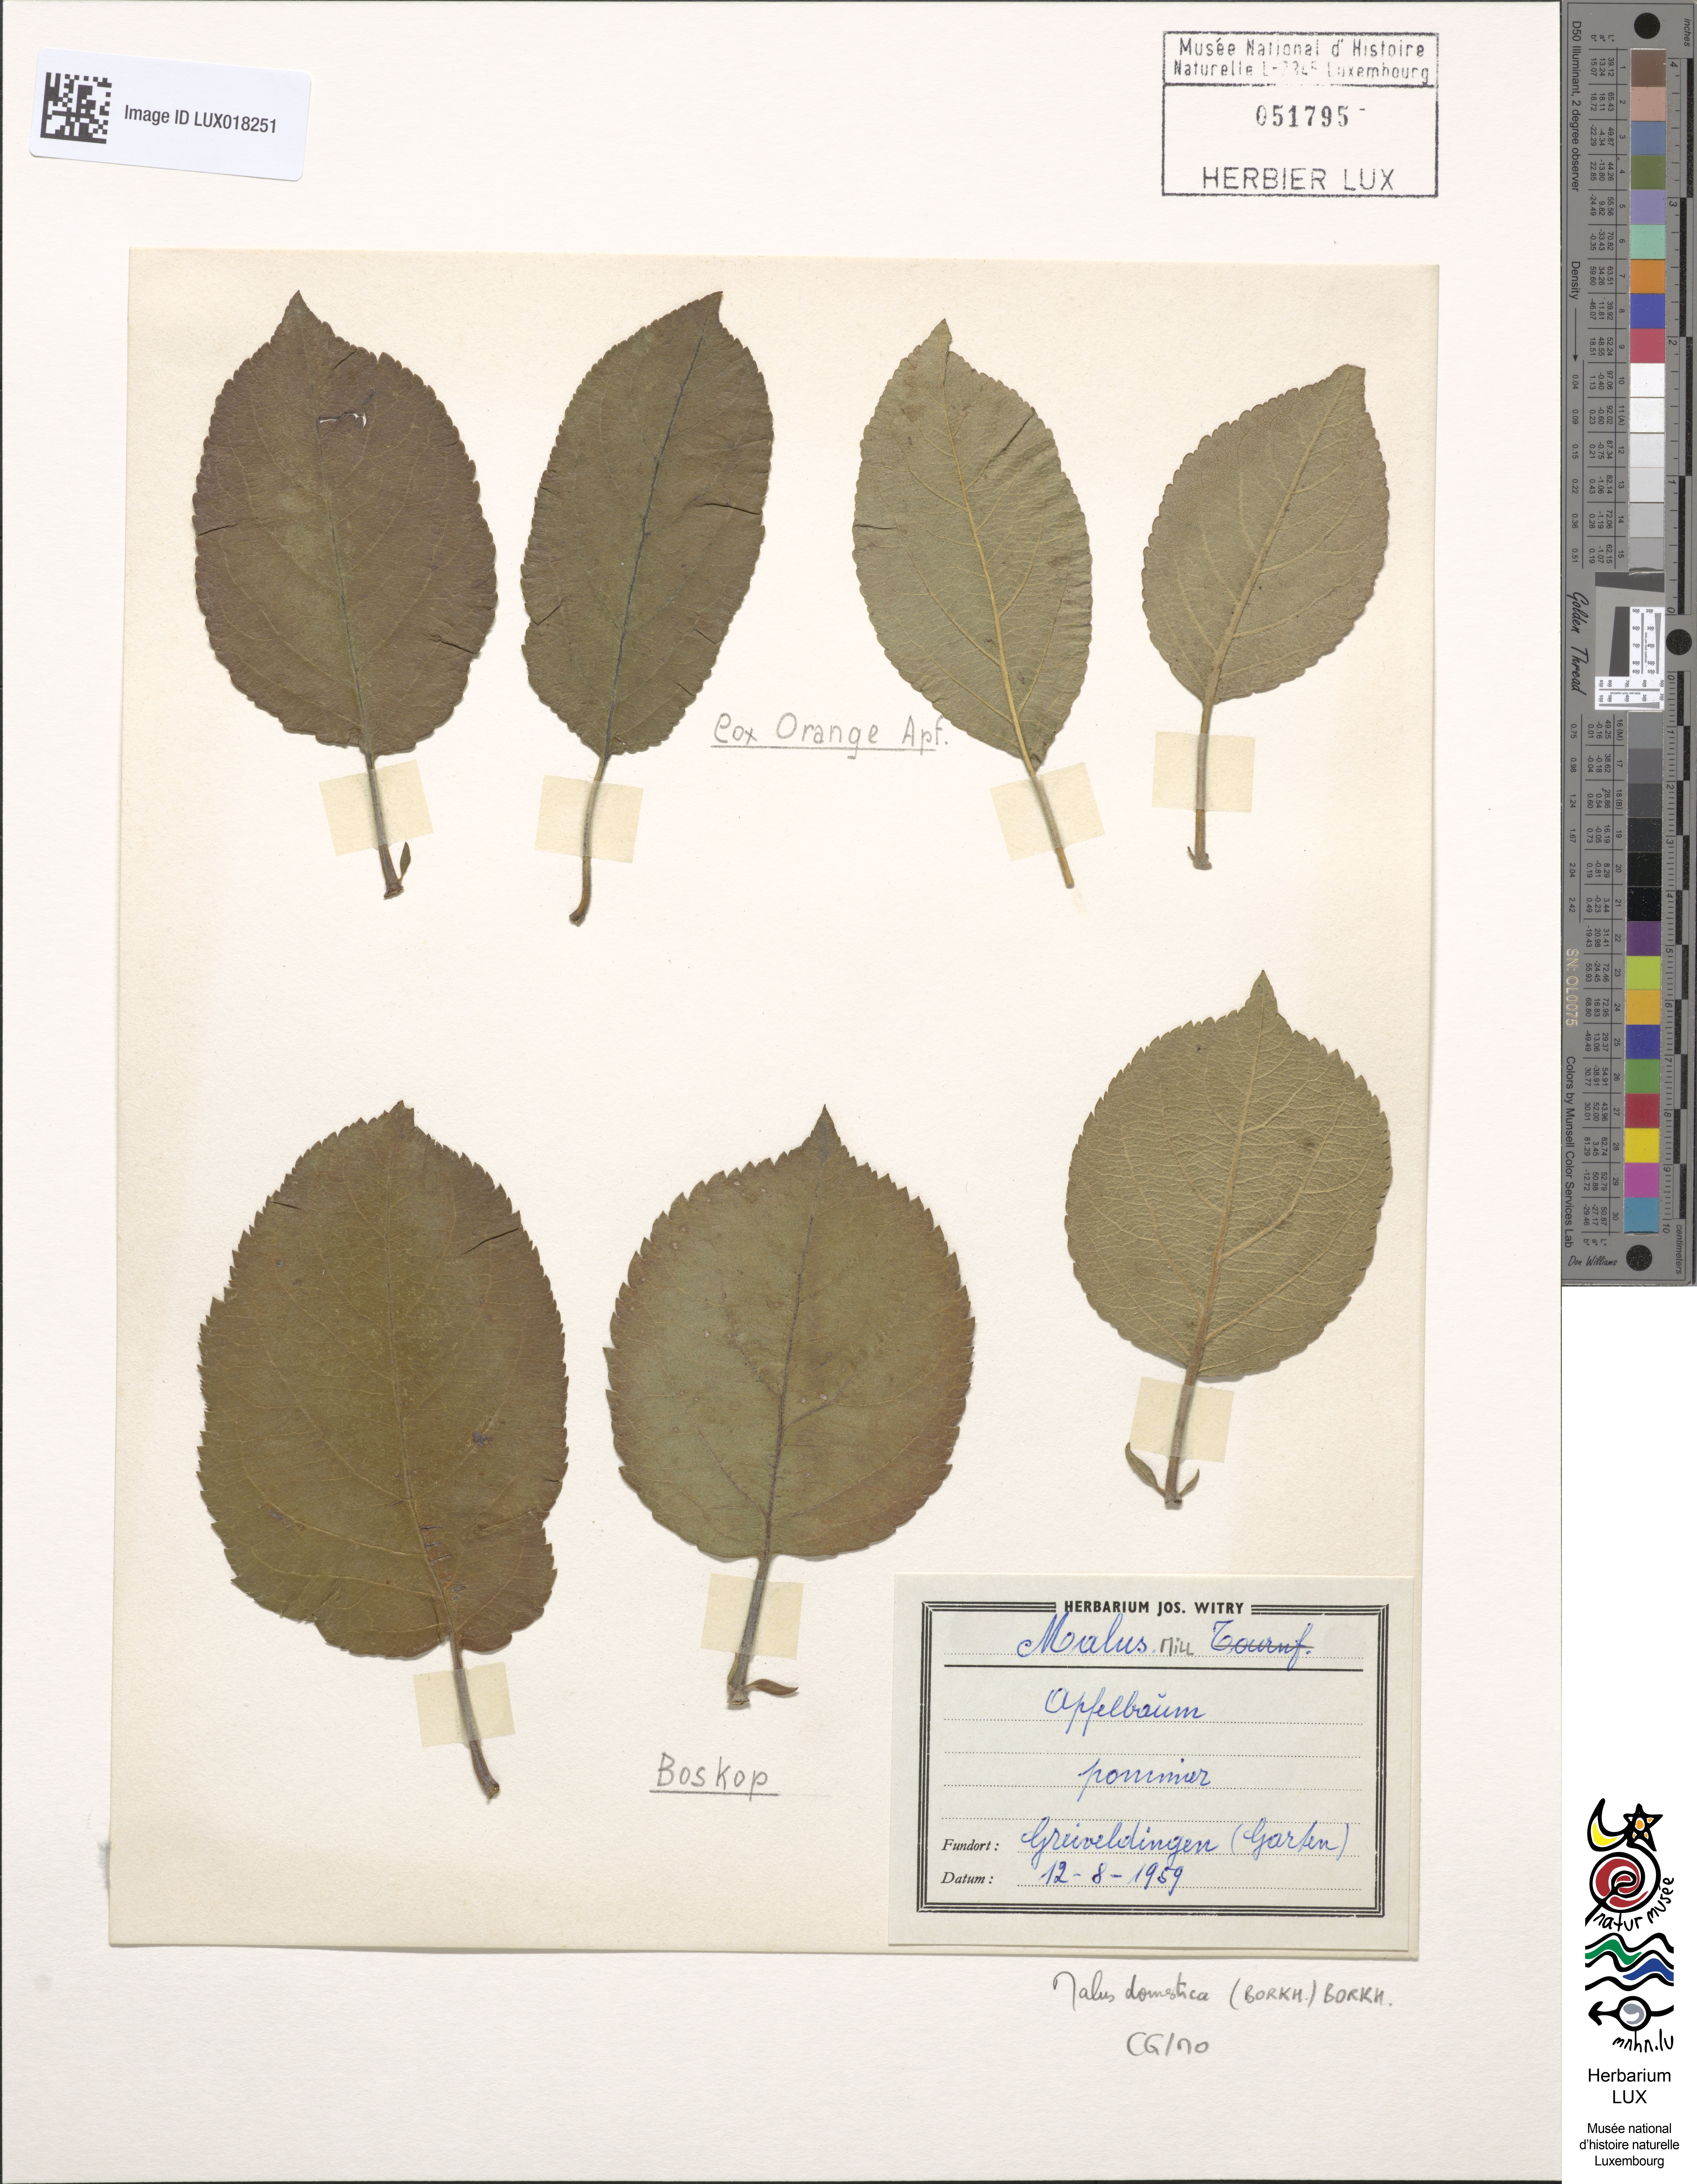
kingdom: Plantae
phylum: Tracheophyta
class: Magnoliopsida
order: Rosales
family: Rosaceae
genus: Malus
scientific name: Malus domestica
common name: Apple
